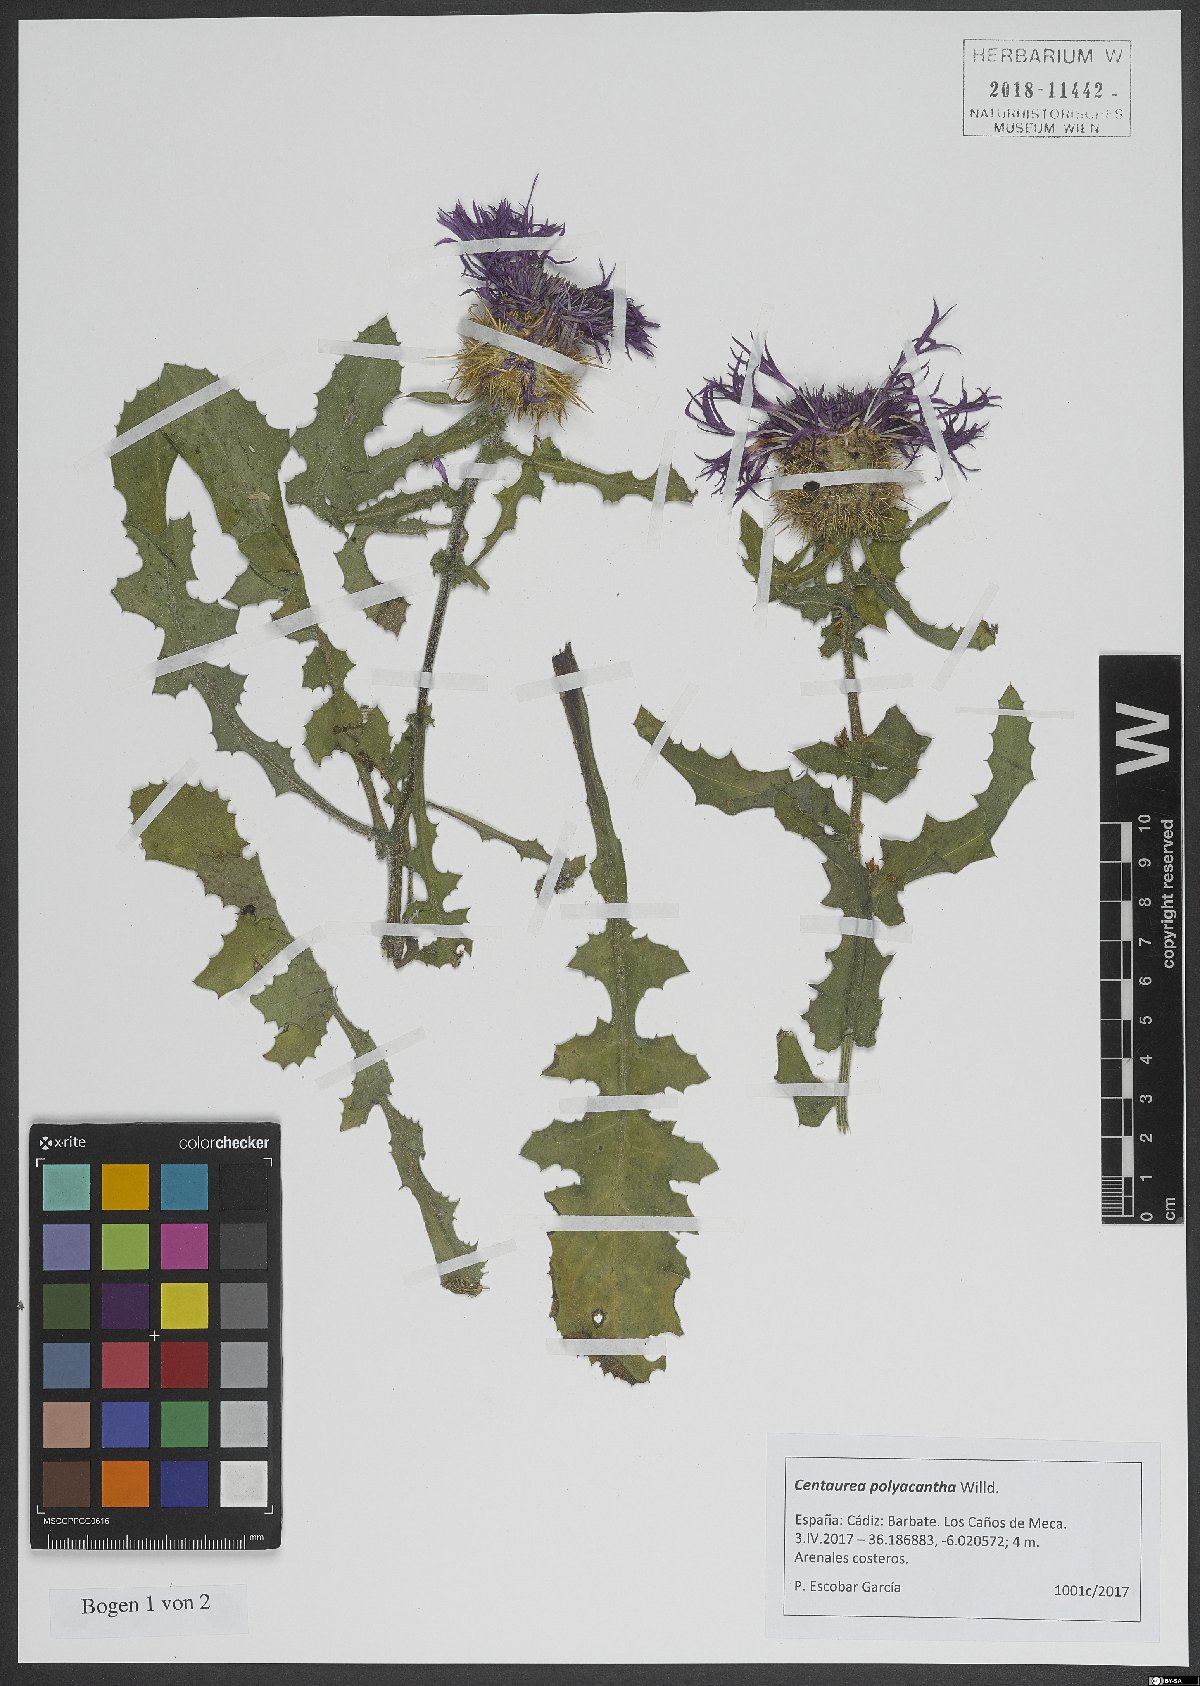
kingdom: Plantae
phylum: Tracheophyta
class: Magnoliopsida
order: Asterales
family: Asteraceae
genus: Centaurea
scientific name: Centaurea polyacantha
